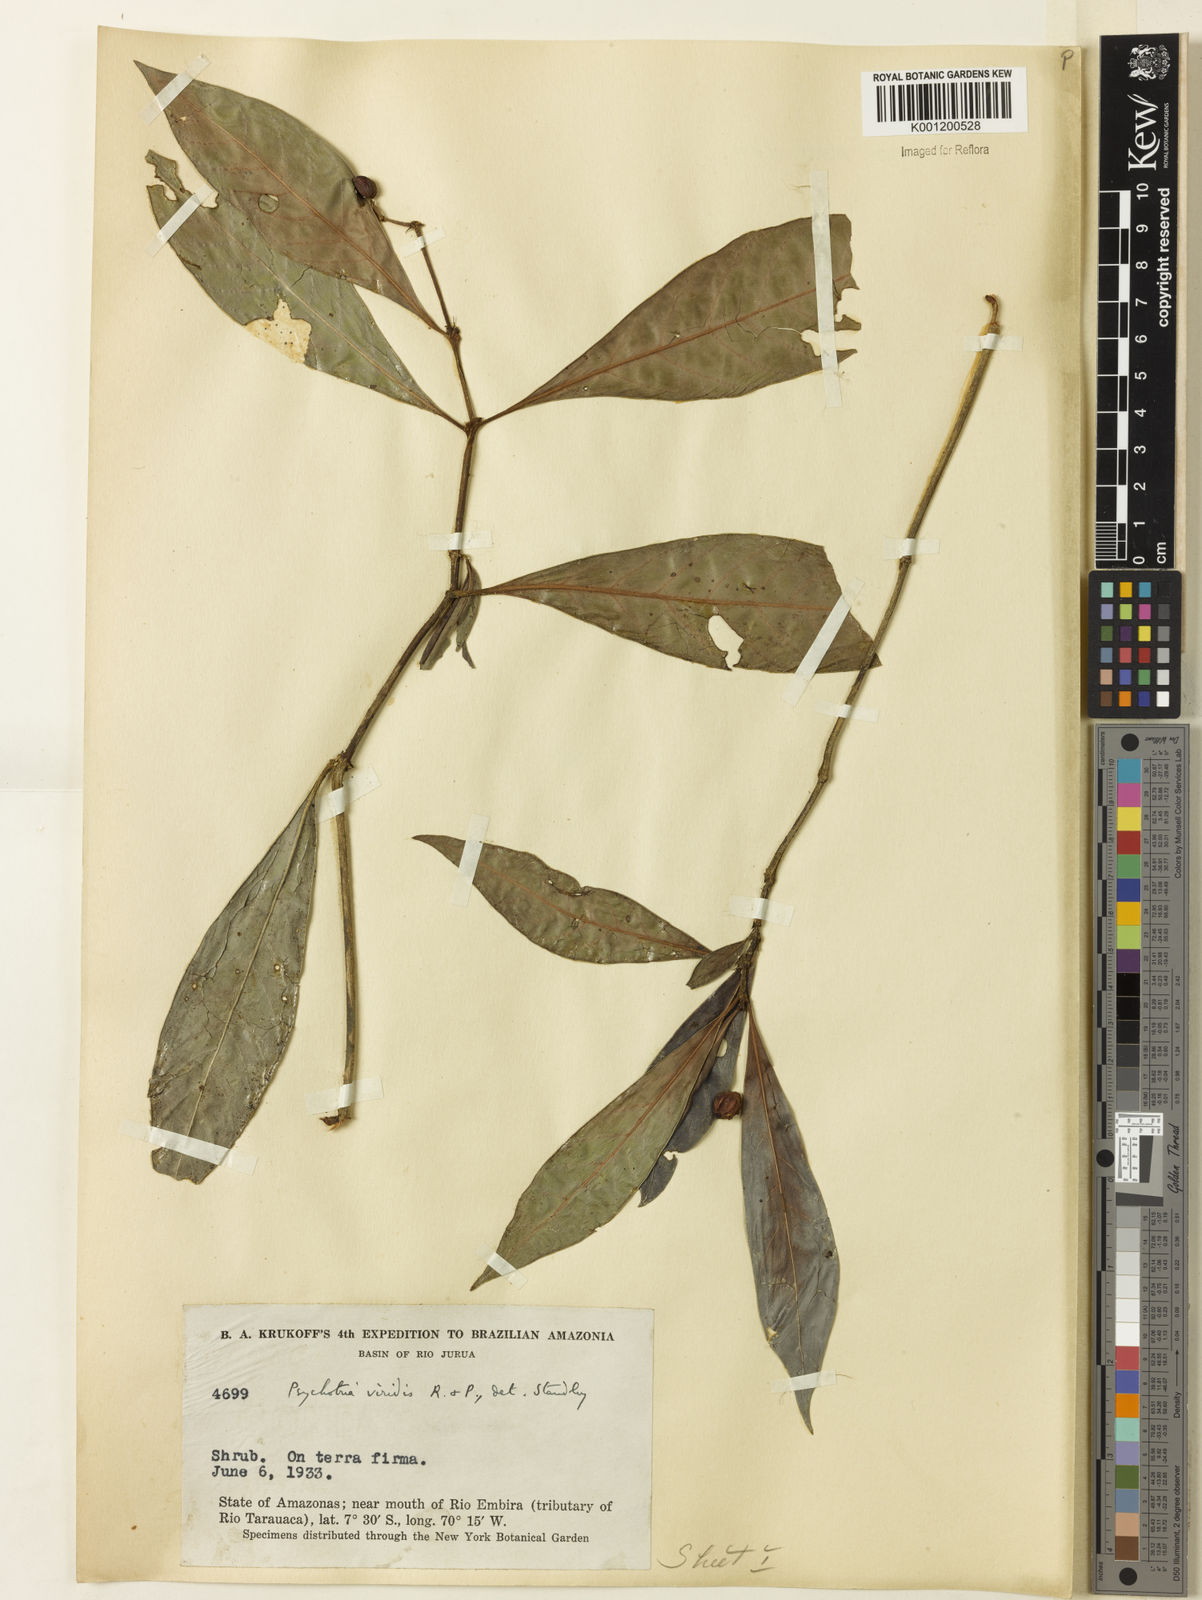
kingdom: Plantae
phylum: Tracheophyta
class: Magnoliopsida
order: Gentianales
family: Rubiaceae
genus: Psychotria
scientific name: Psychotria viridis
